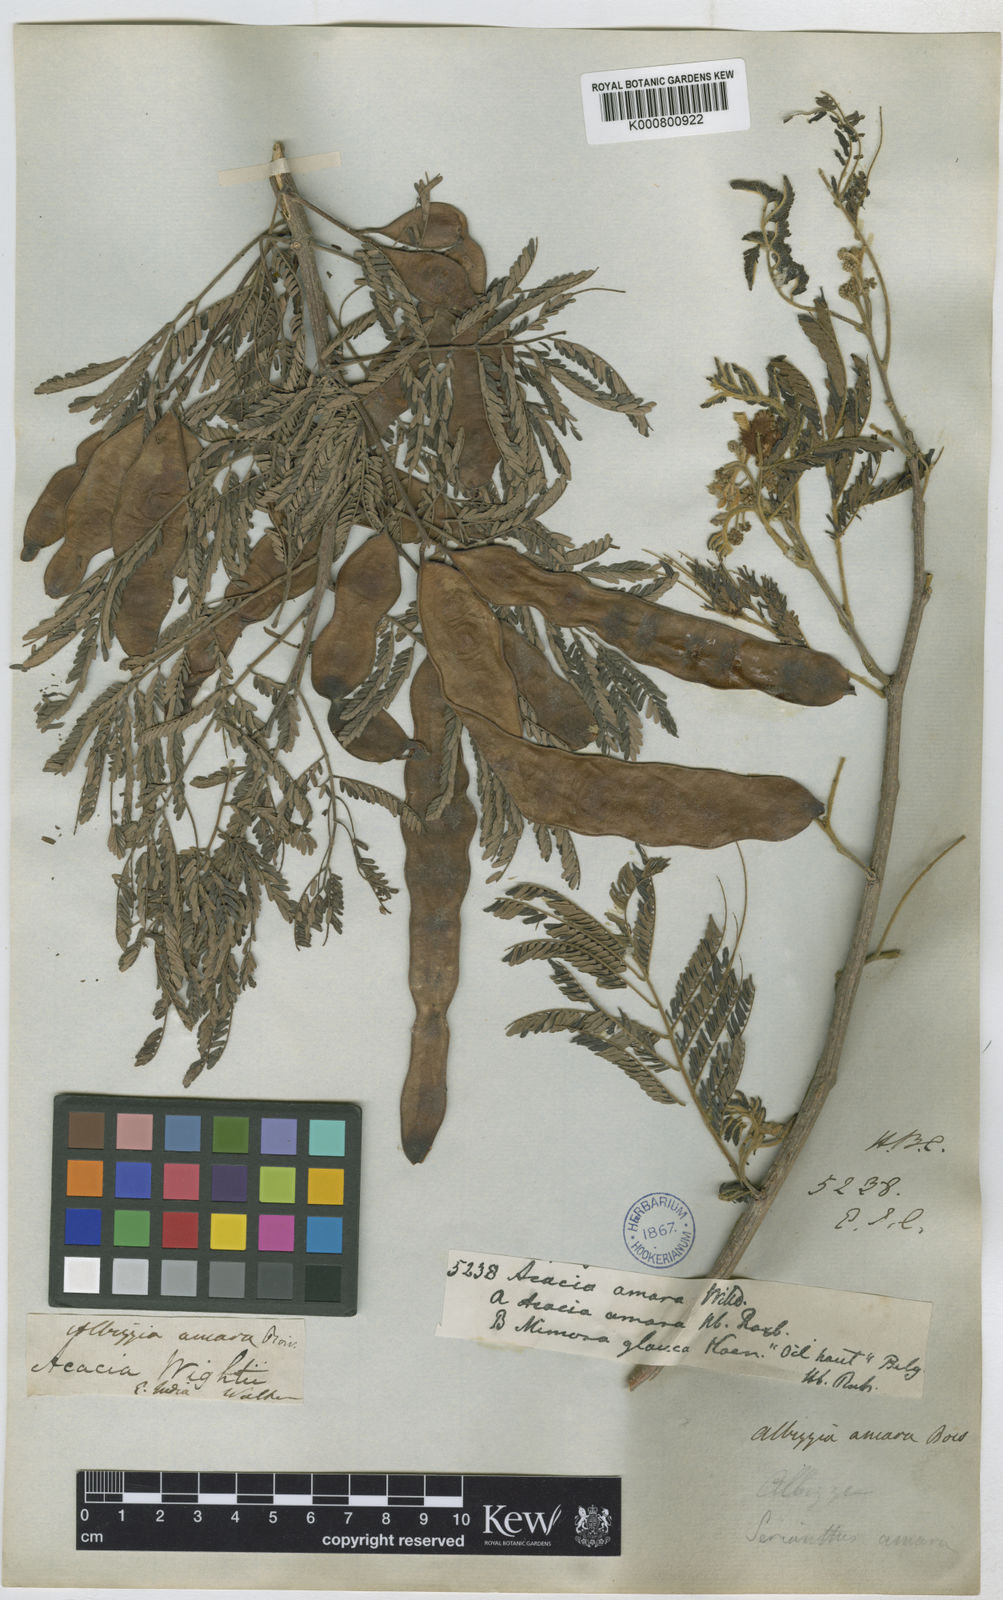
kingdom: Plantae
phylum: Tracheophyta
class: Magnoliopsida
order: Fabales
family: Fabaceae
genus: Albizia
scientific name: Albizia amara
